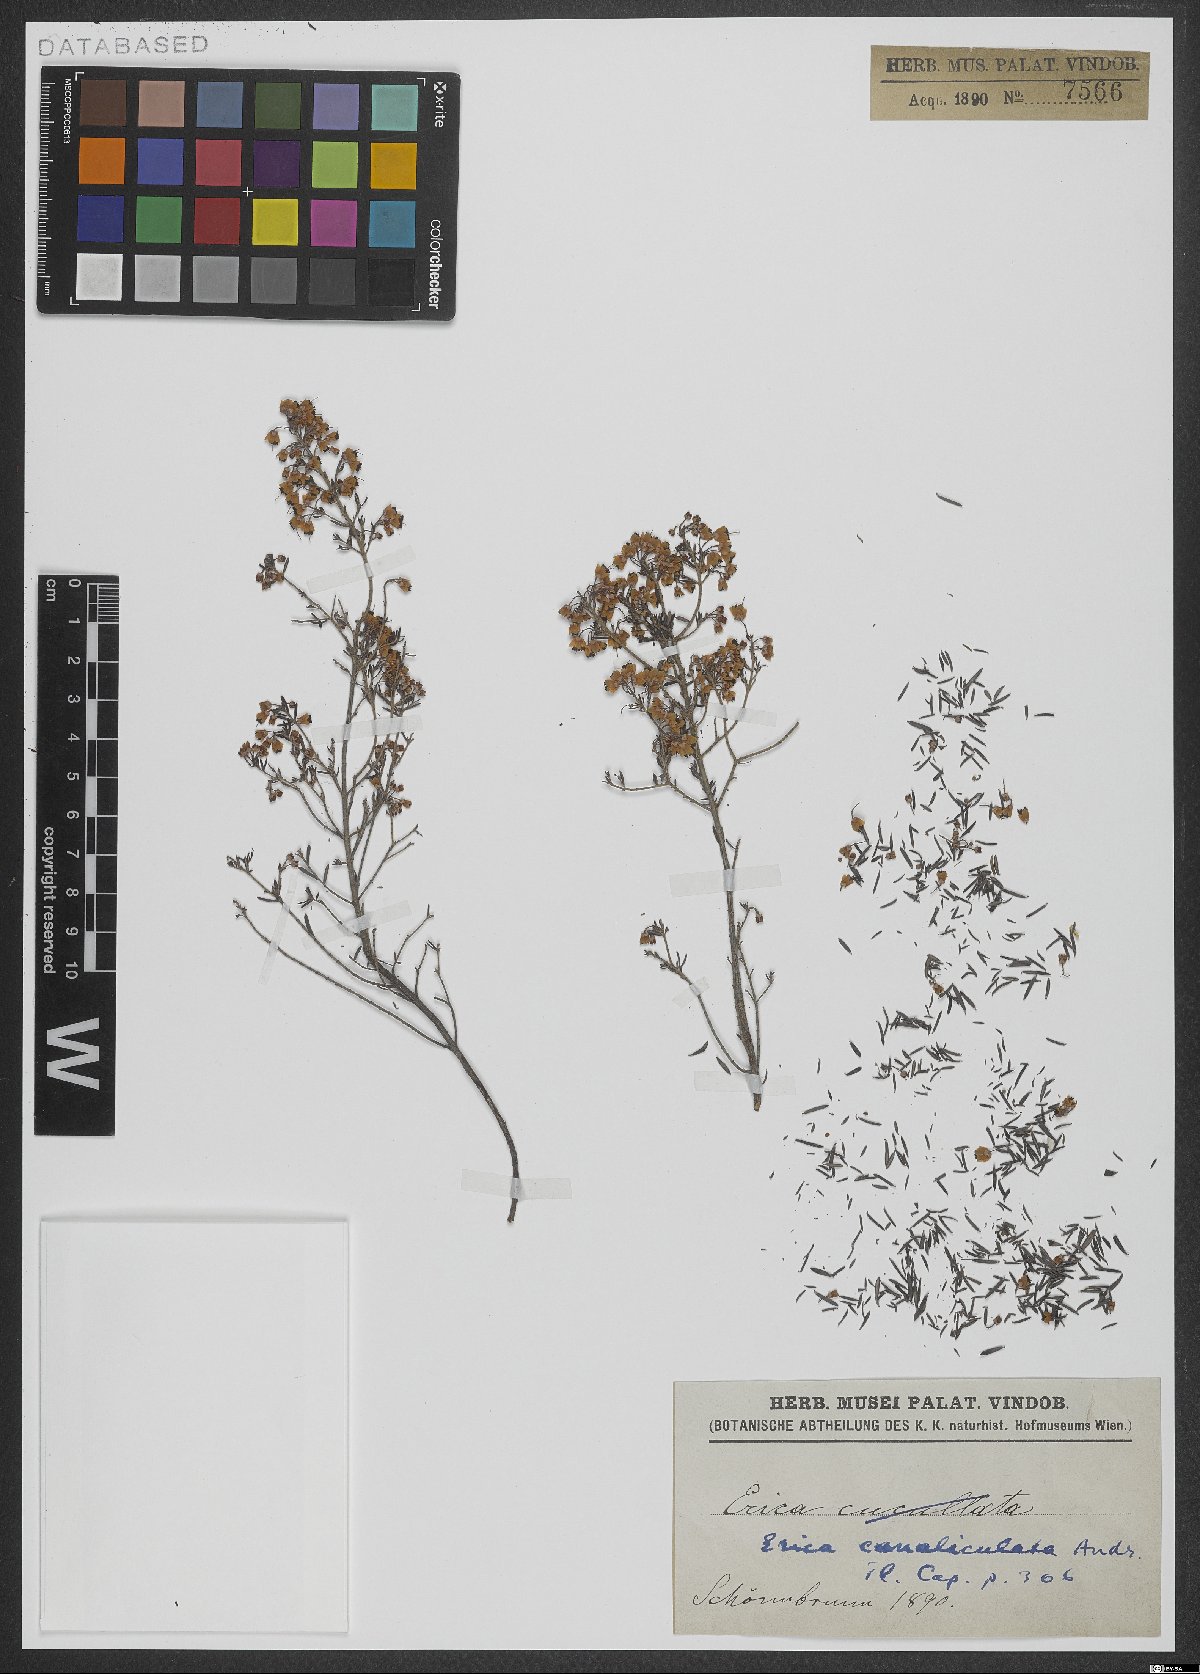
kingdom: Plantae
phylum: Tracheophyta
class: Magnoliopsida
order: Ericales
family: Ericaceae
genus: Erica
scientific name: Erica canaliculata
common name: Hairy grey heather
